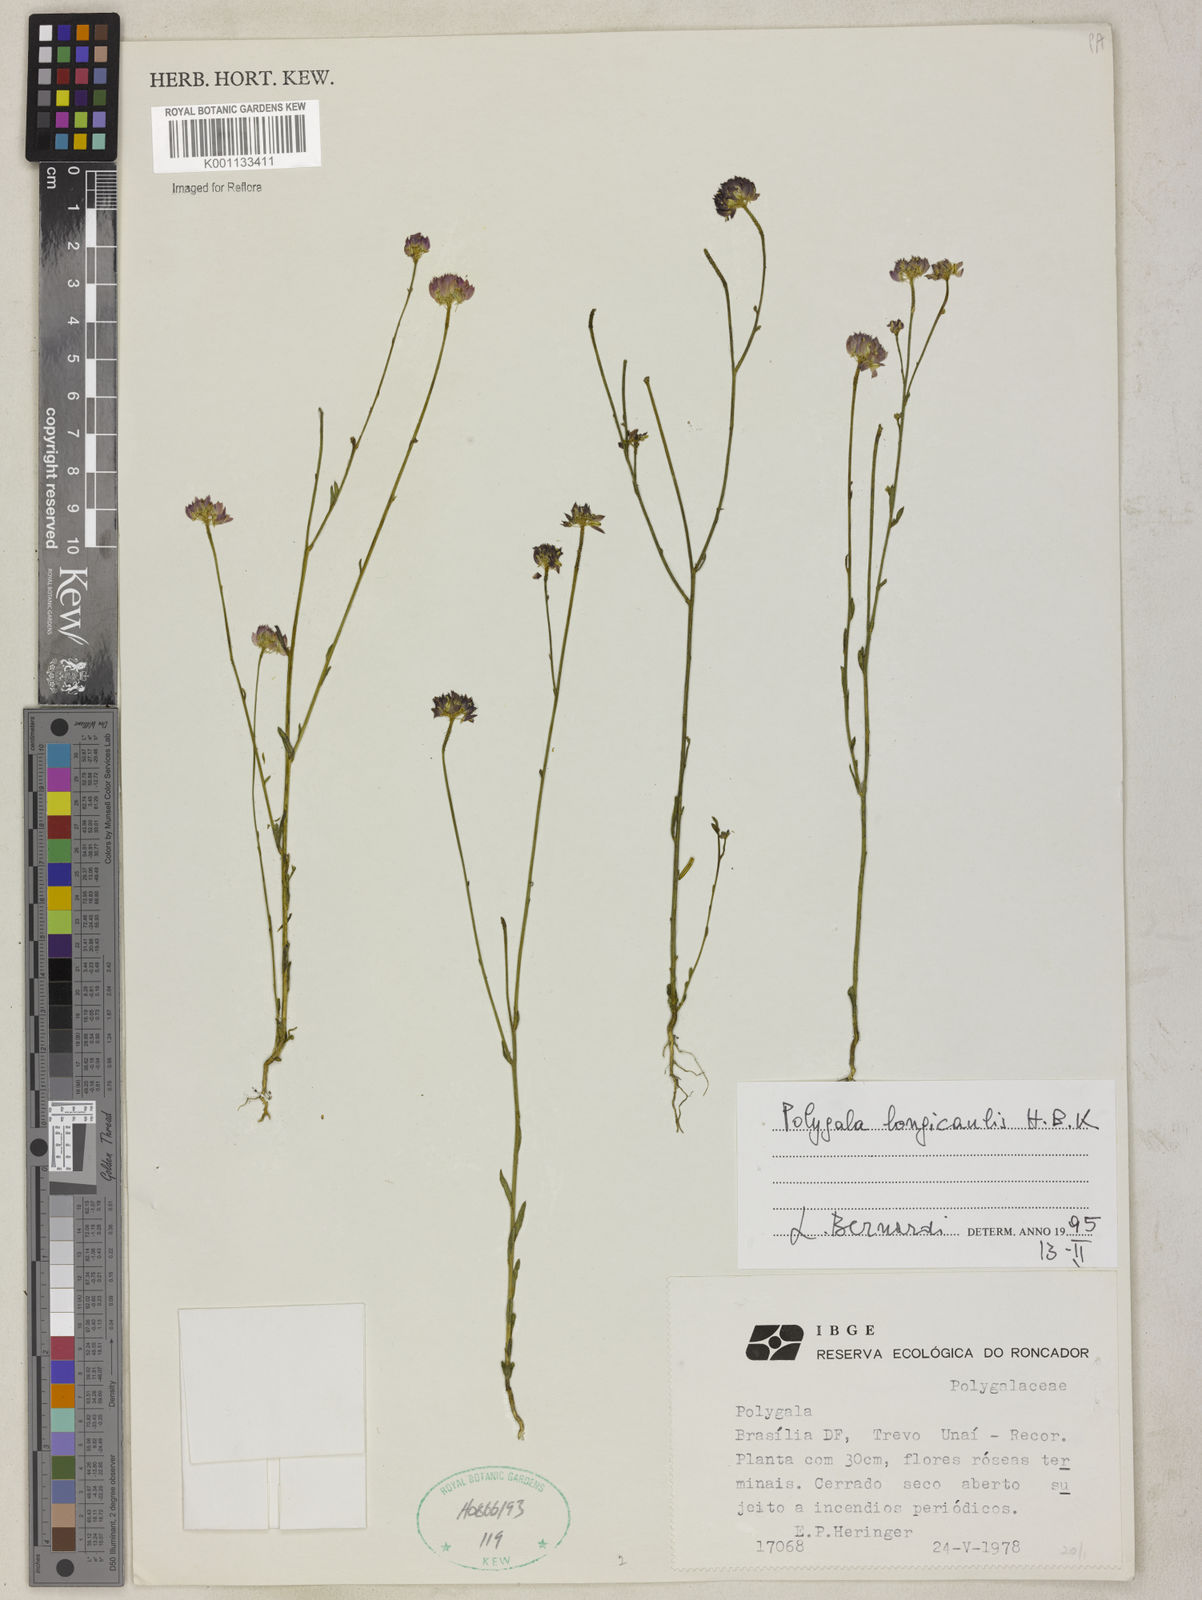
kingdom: Plantae
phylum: Tracheophyta
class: Magnoliopsida
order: Fabales
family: Polygalaceae
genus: Polygala
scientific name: Polygala longicaulis
